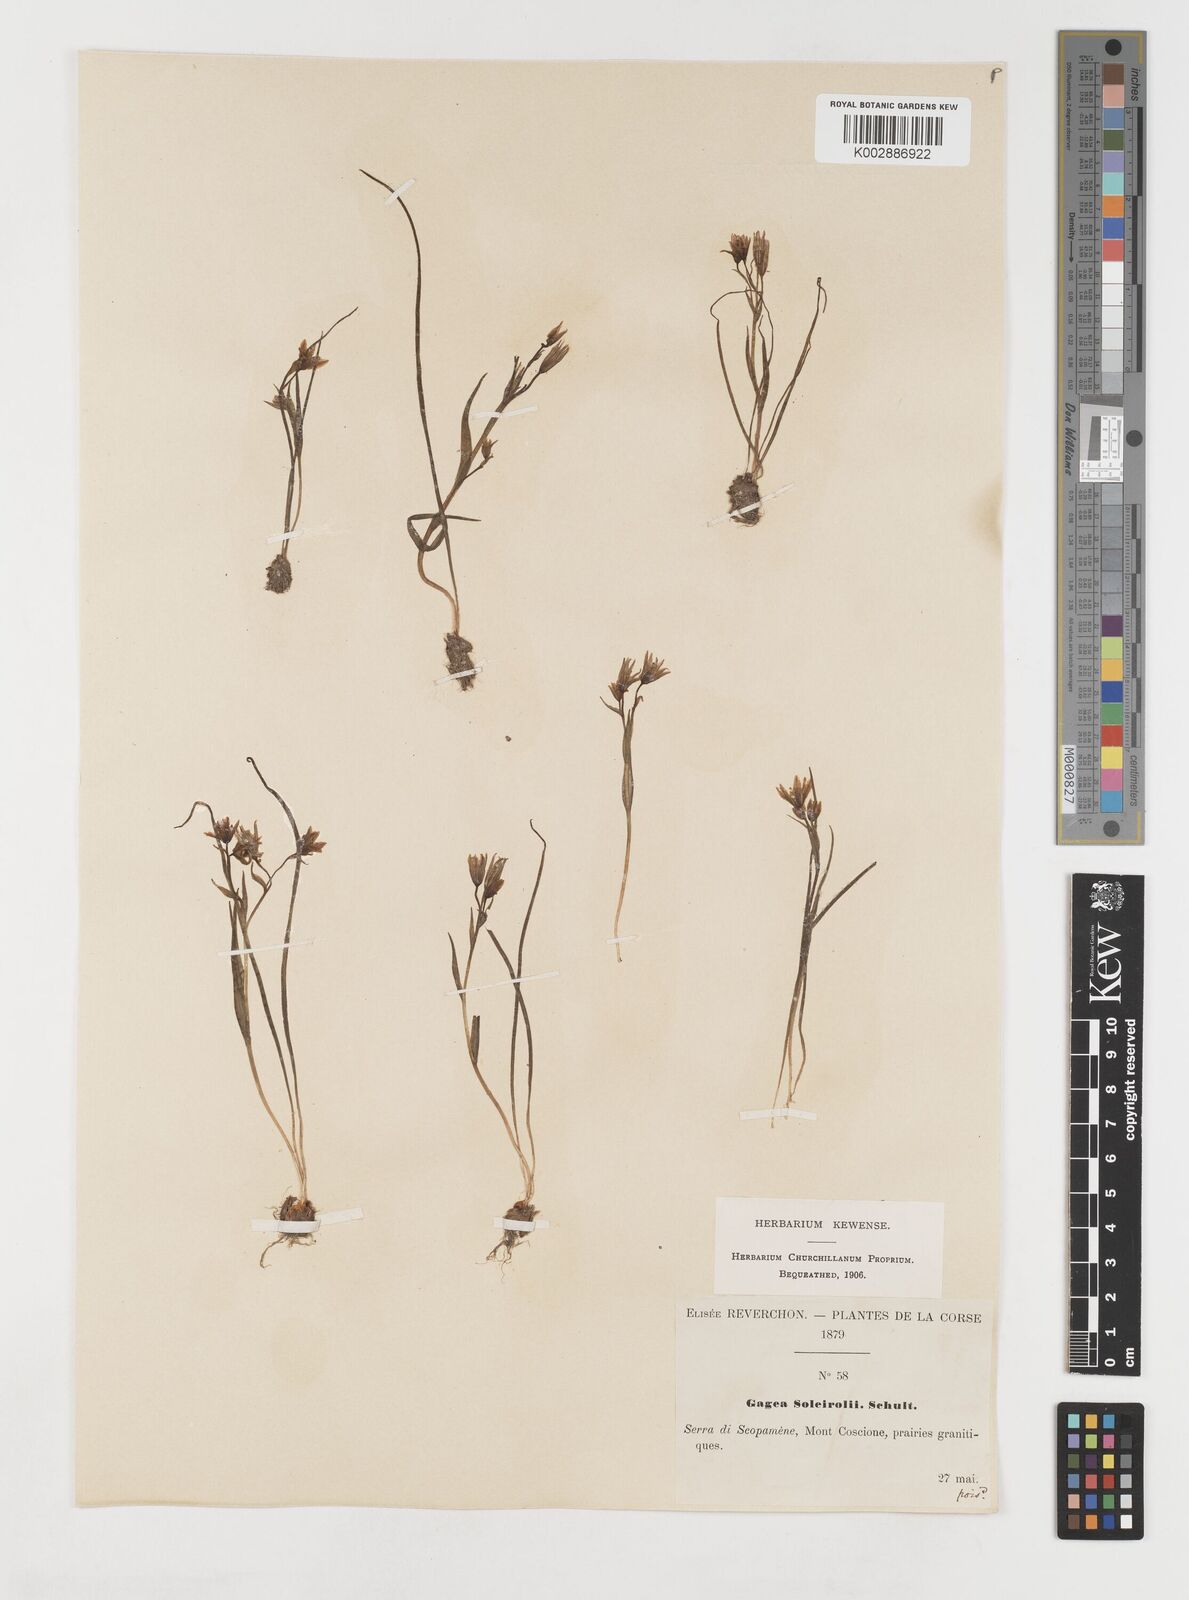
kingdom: Plantae
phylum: Tracheophyta
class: Liliopsida
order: Liliales
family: Liliaceae
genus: Gagea
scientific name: Gagea soleirolii
